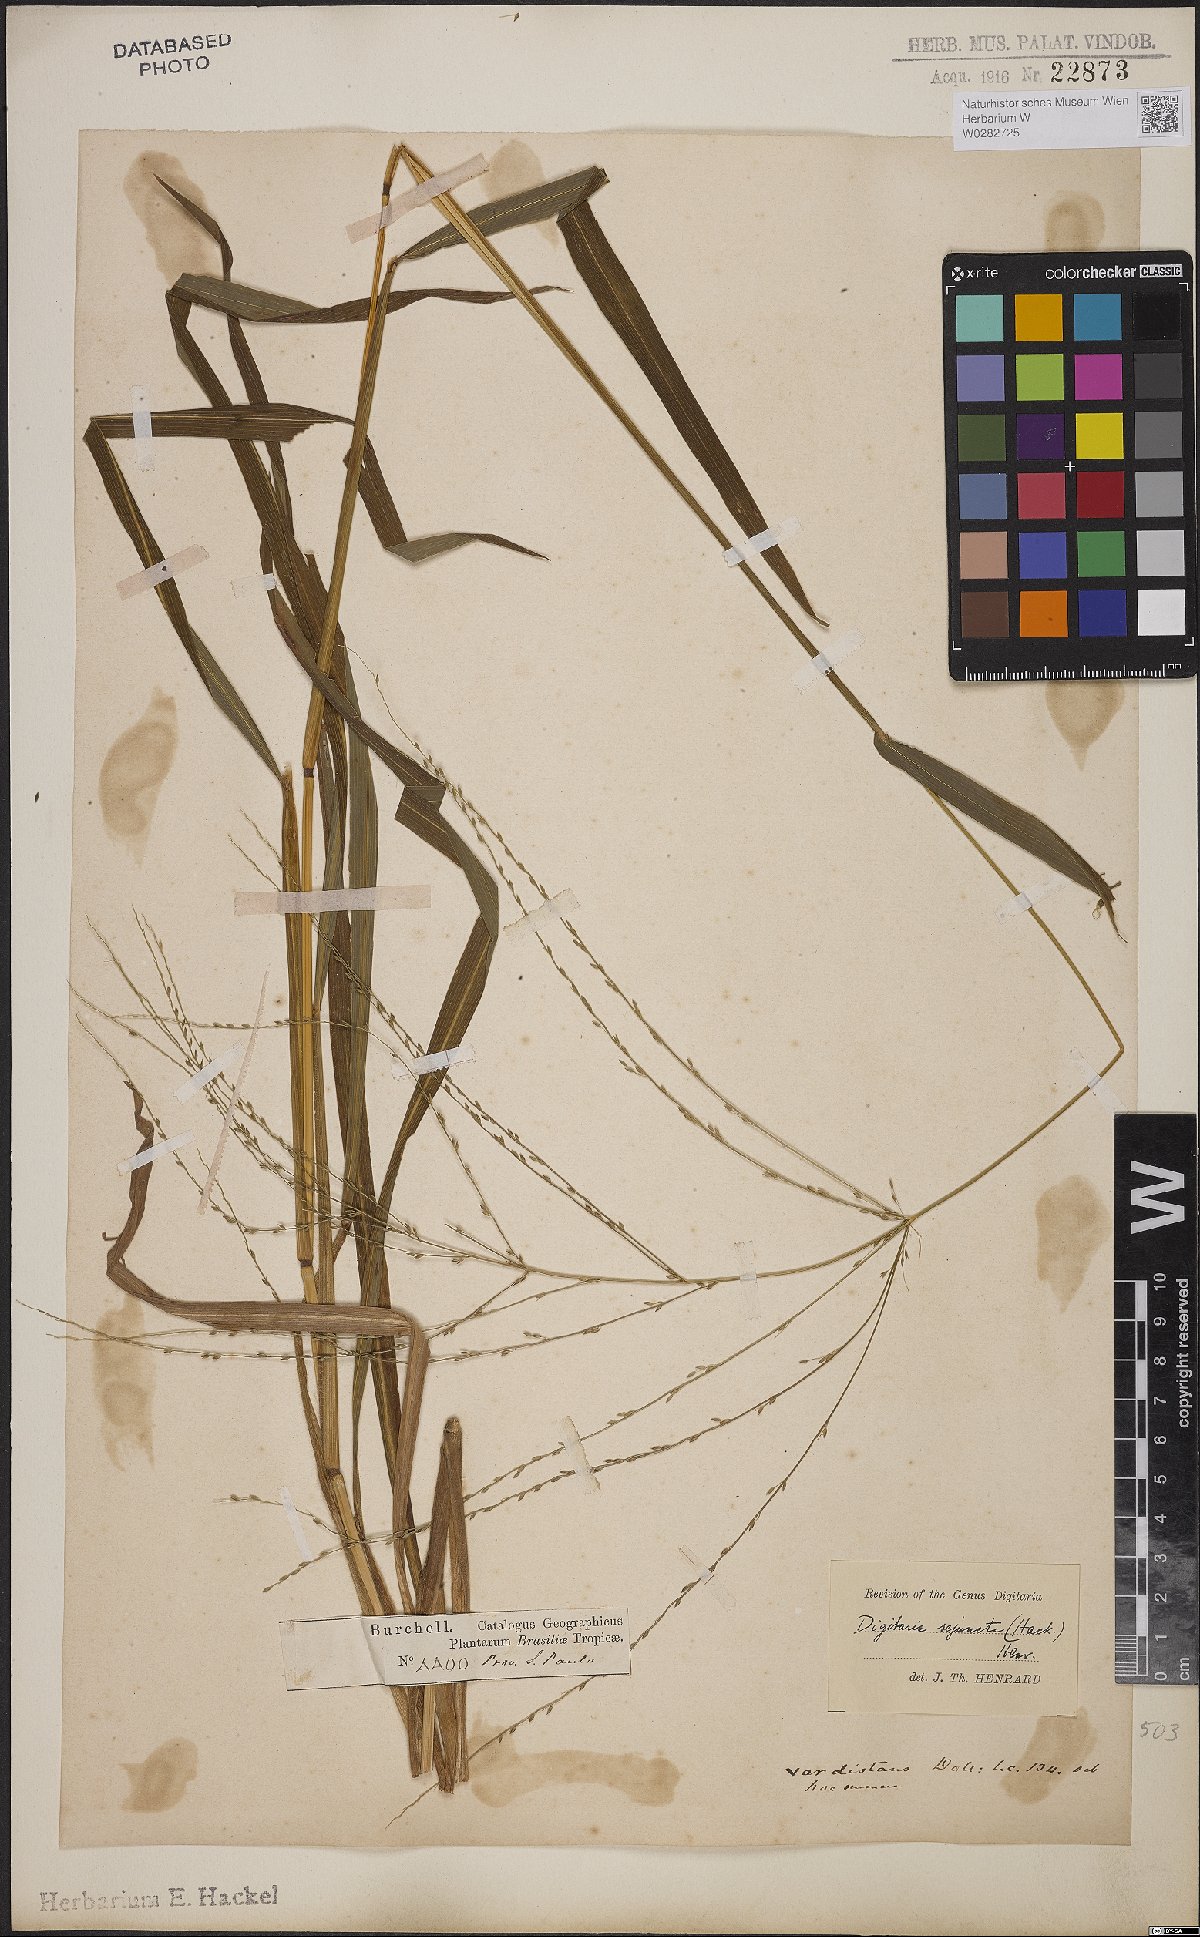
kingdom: Plantae
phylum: Tracheophyta
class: Liliopsida
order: Poales
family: Poaceae
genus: Digitaria
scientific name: Digitaria sejuncta
